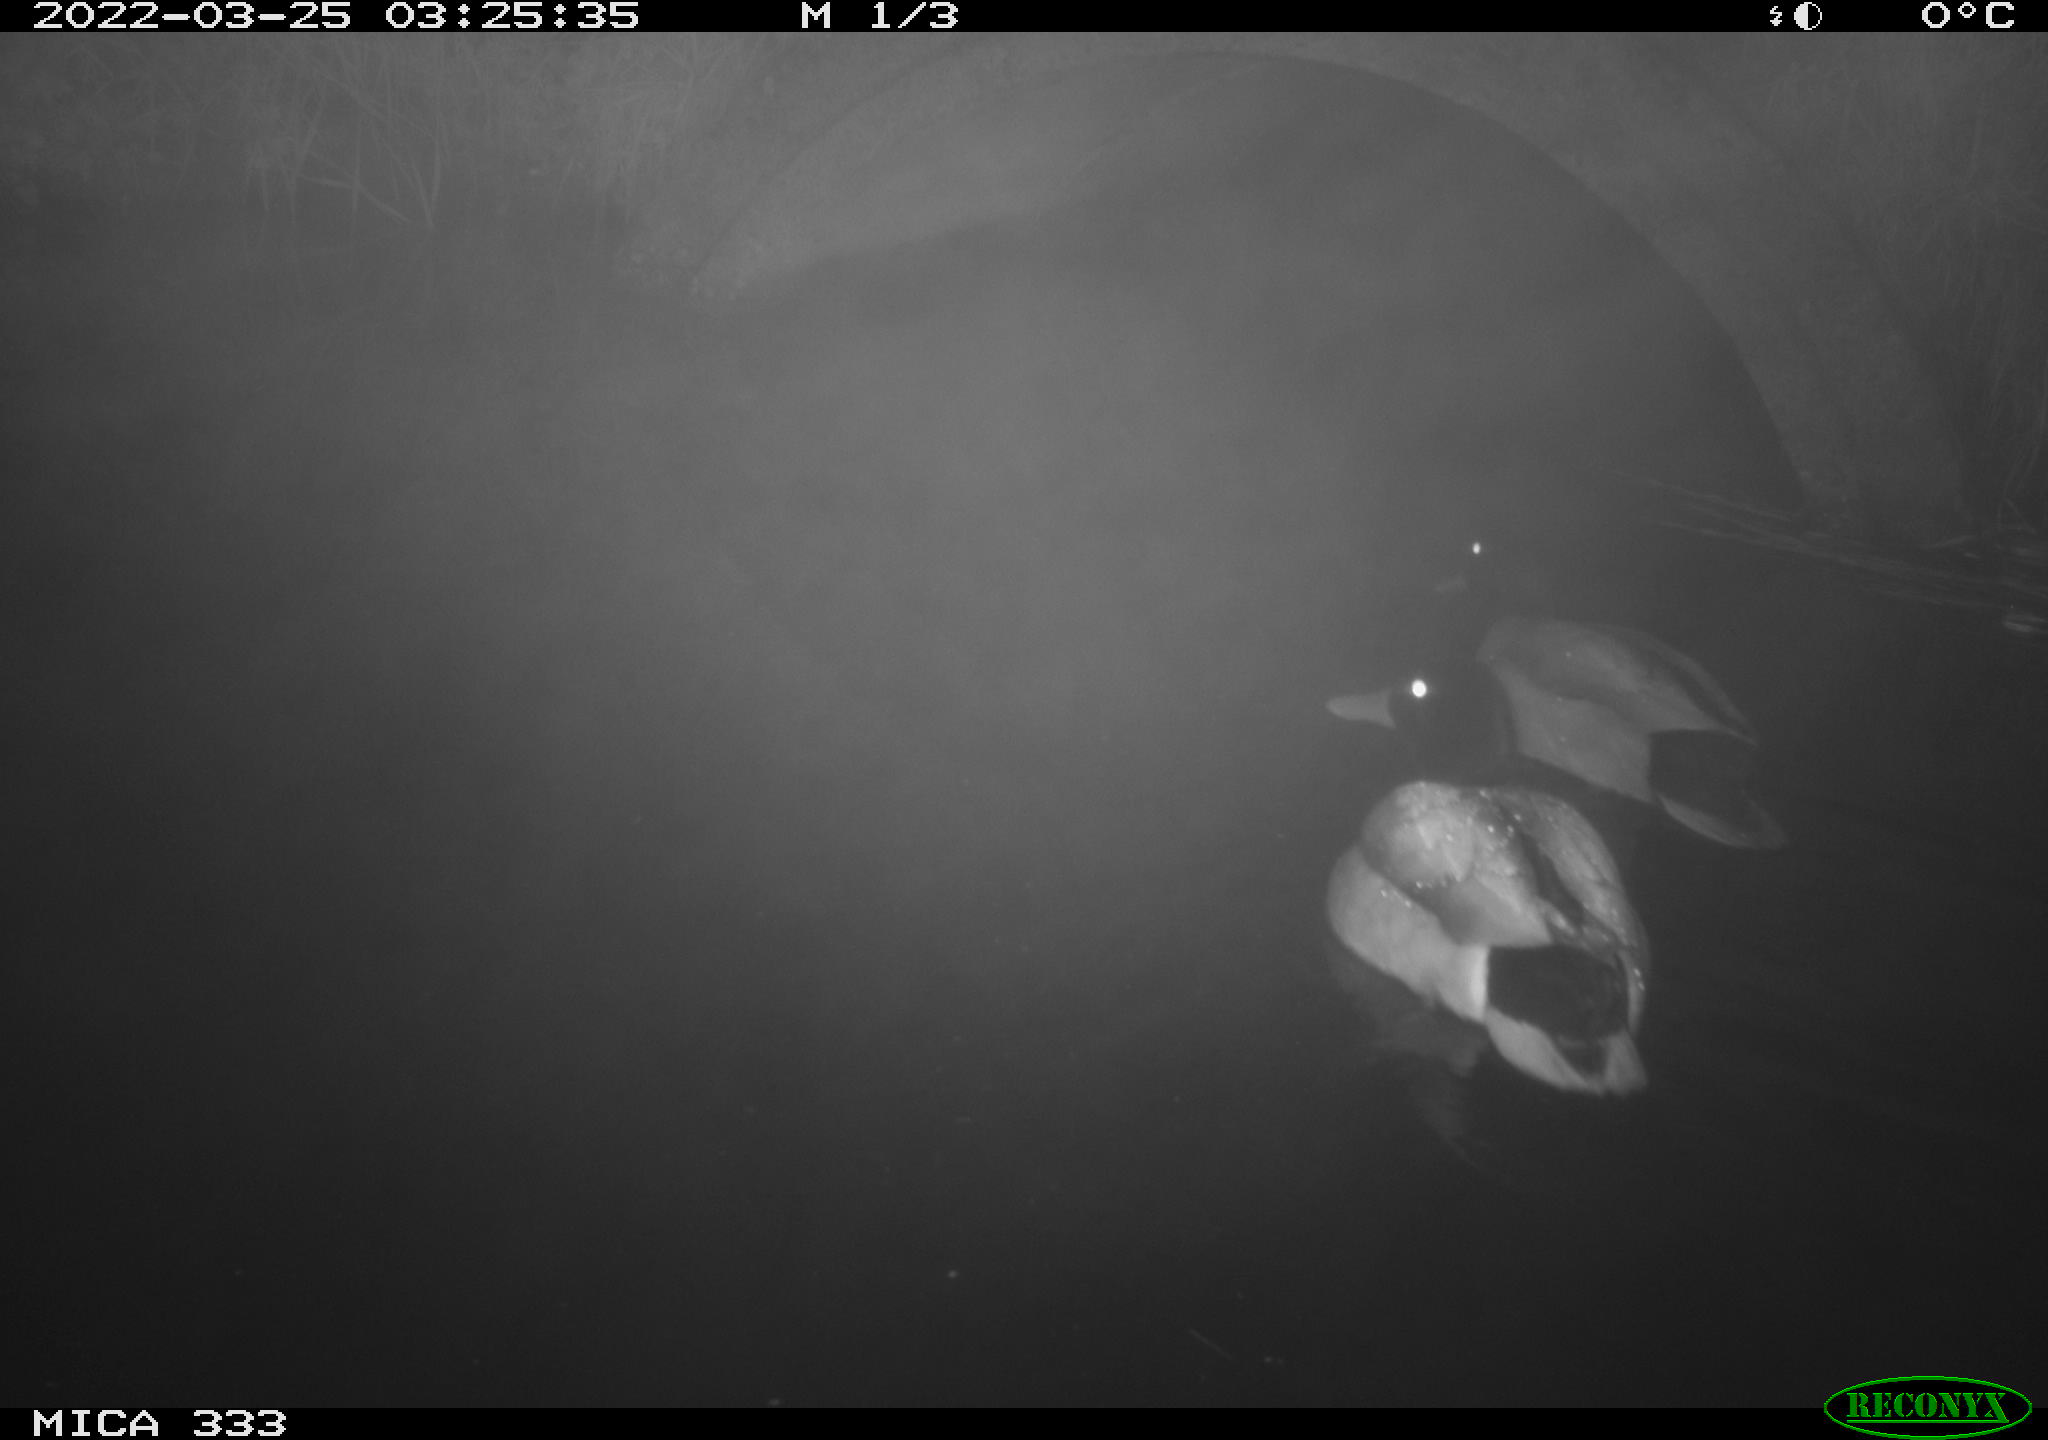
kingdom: Animalia
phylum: Chordata
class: Aves
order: Anseriformes
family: Anatidae
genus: Anas
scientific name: Anas platyrhynchos
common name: Mallard
